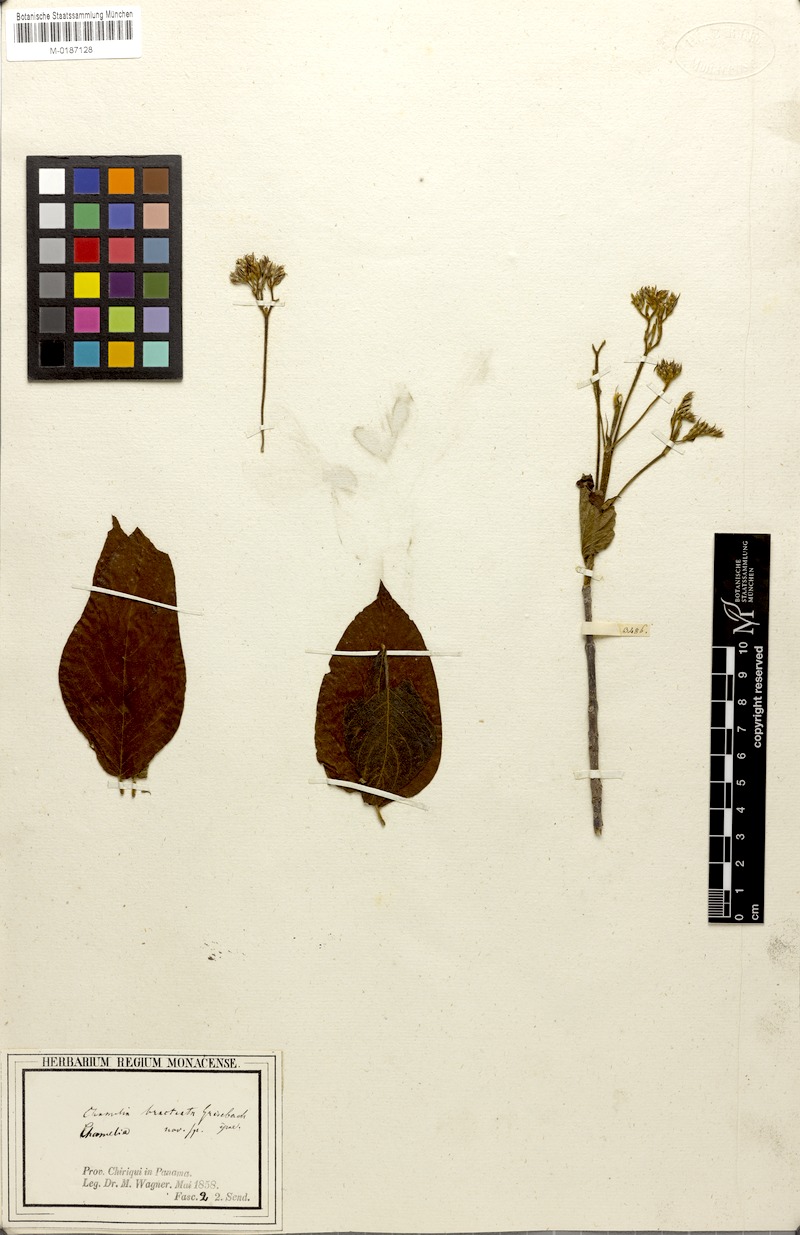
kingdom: Plantae
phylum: Tracheophyta
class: Magnoliopsida
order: Gentianales
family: Rubiaceae
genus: Chomelia
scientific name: Chomelia
